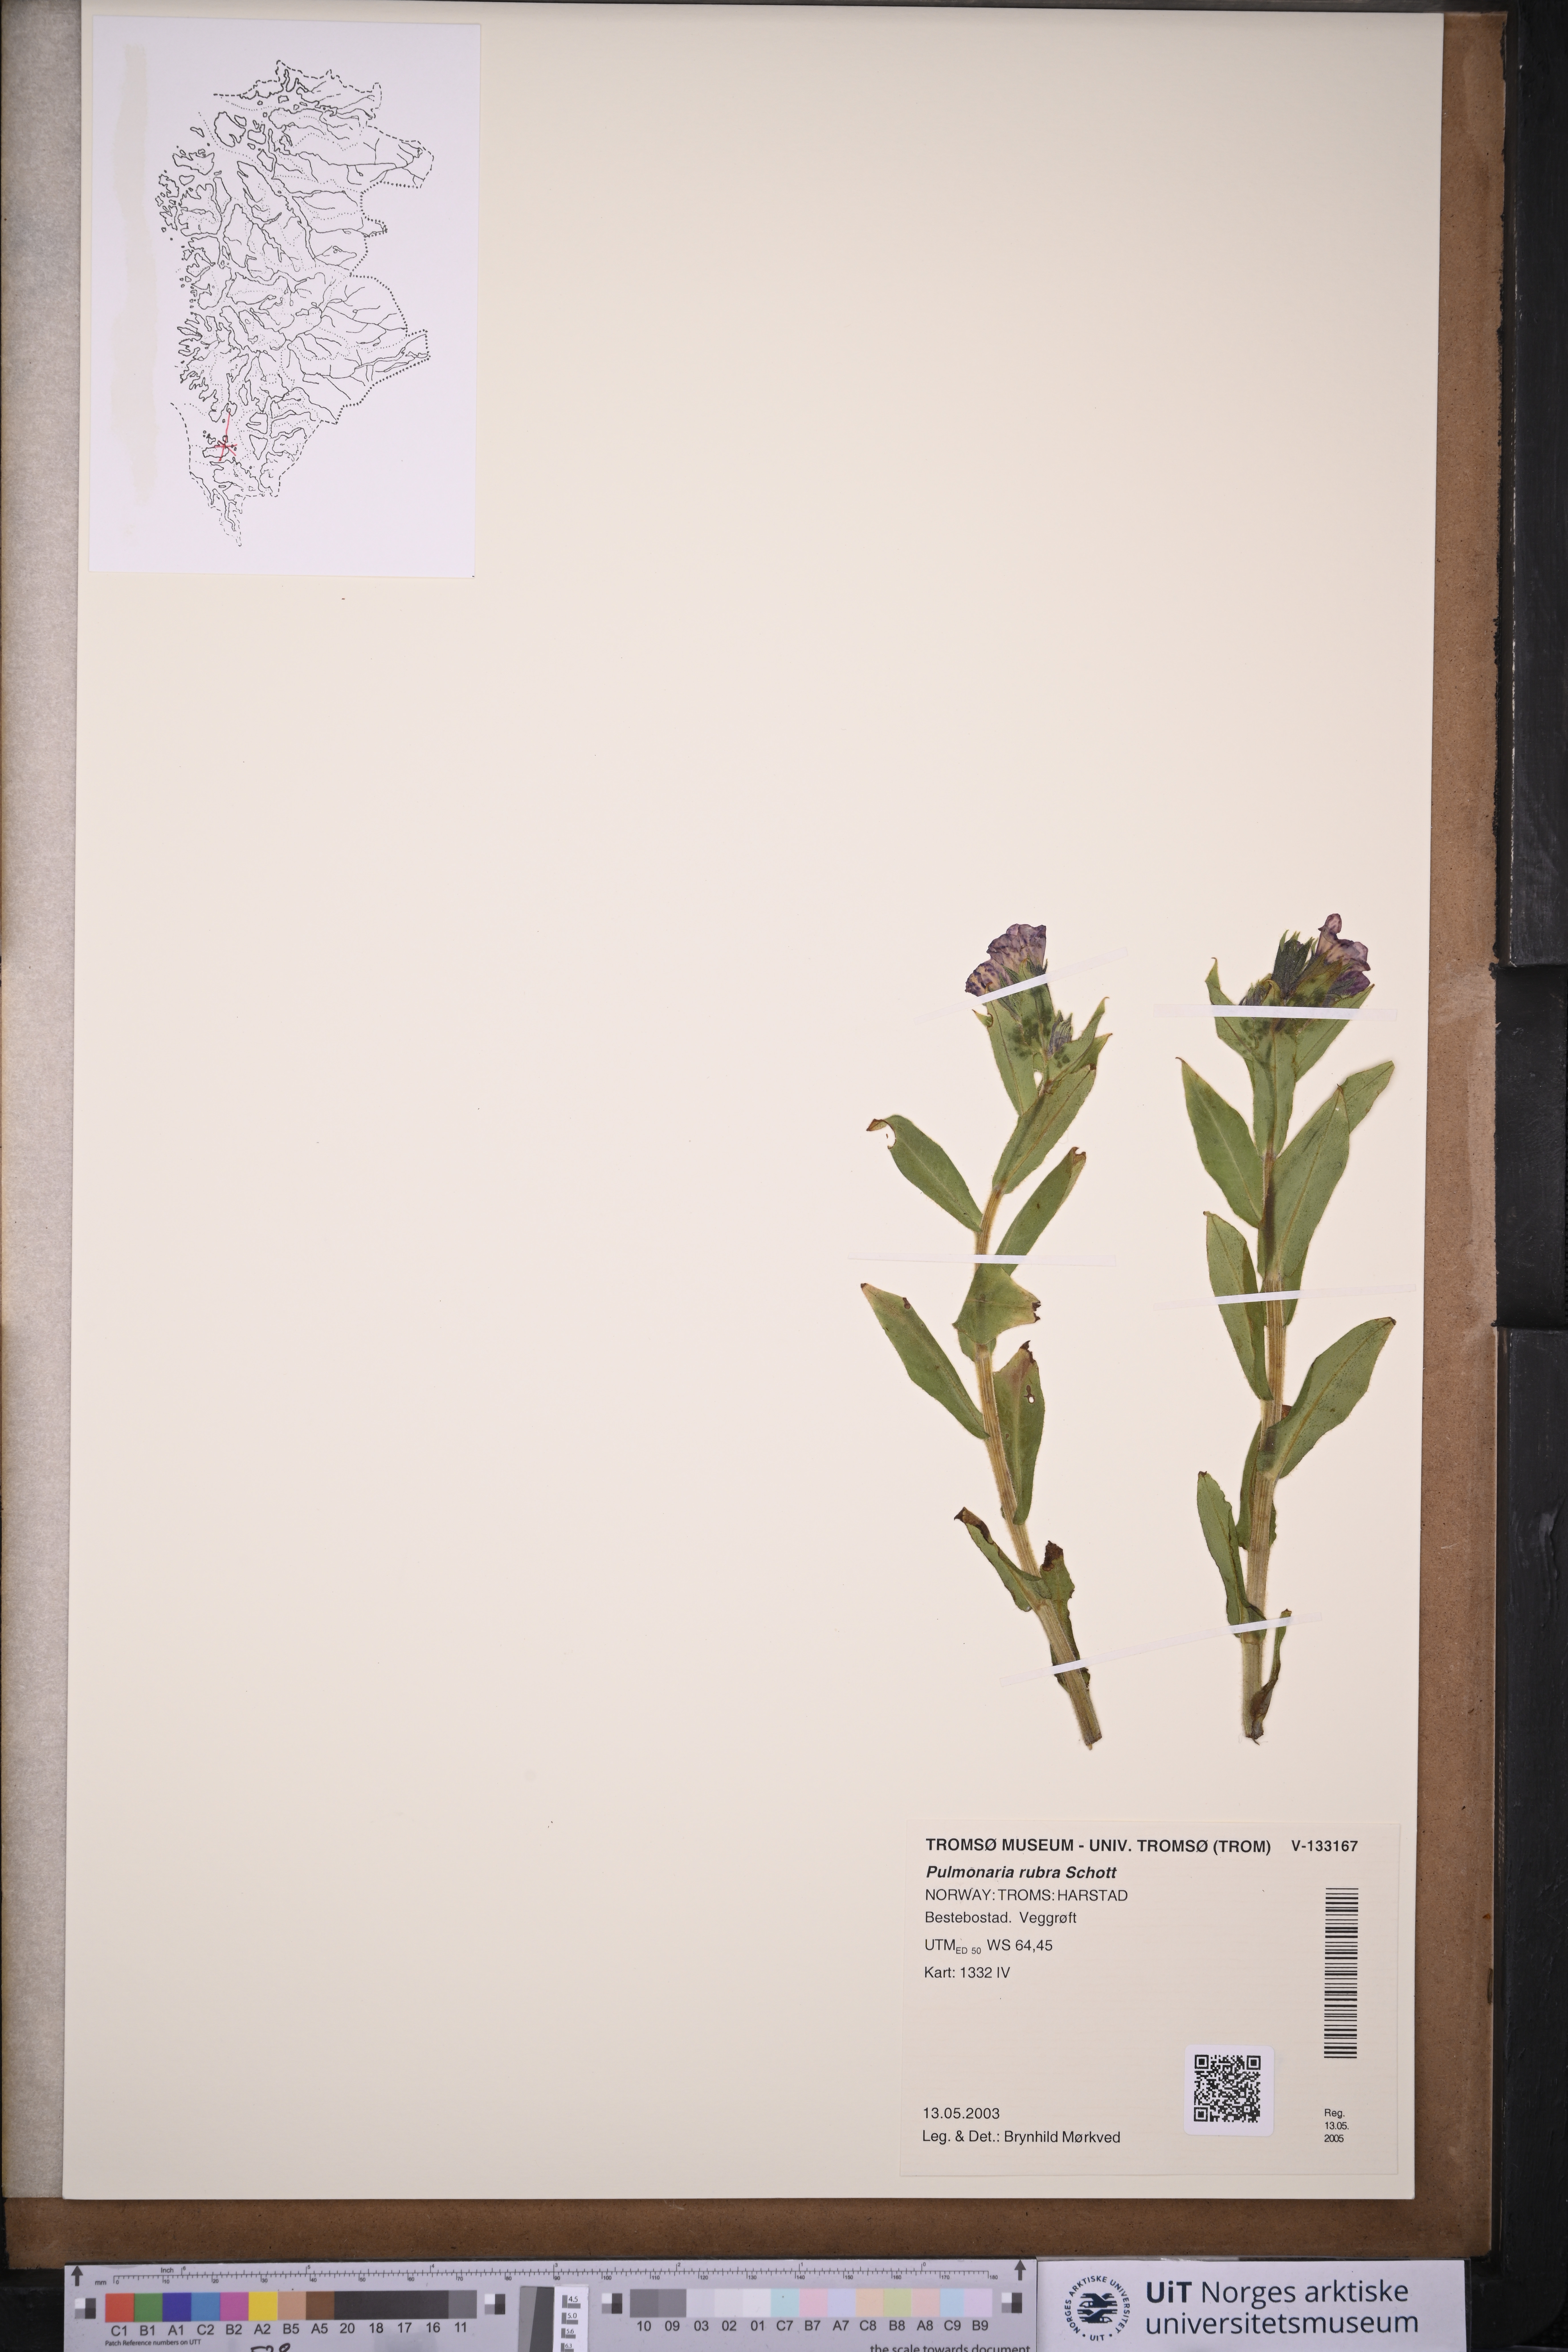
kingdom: Plantae
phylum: Tracheophyta
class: Magnoliopsida
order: Boraginales
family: Boraginaceae
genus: Pulmonaria
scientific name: Pulmonaria rubra
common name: Red lungwort
